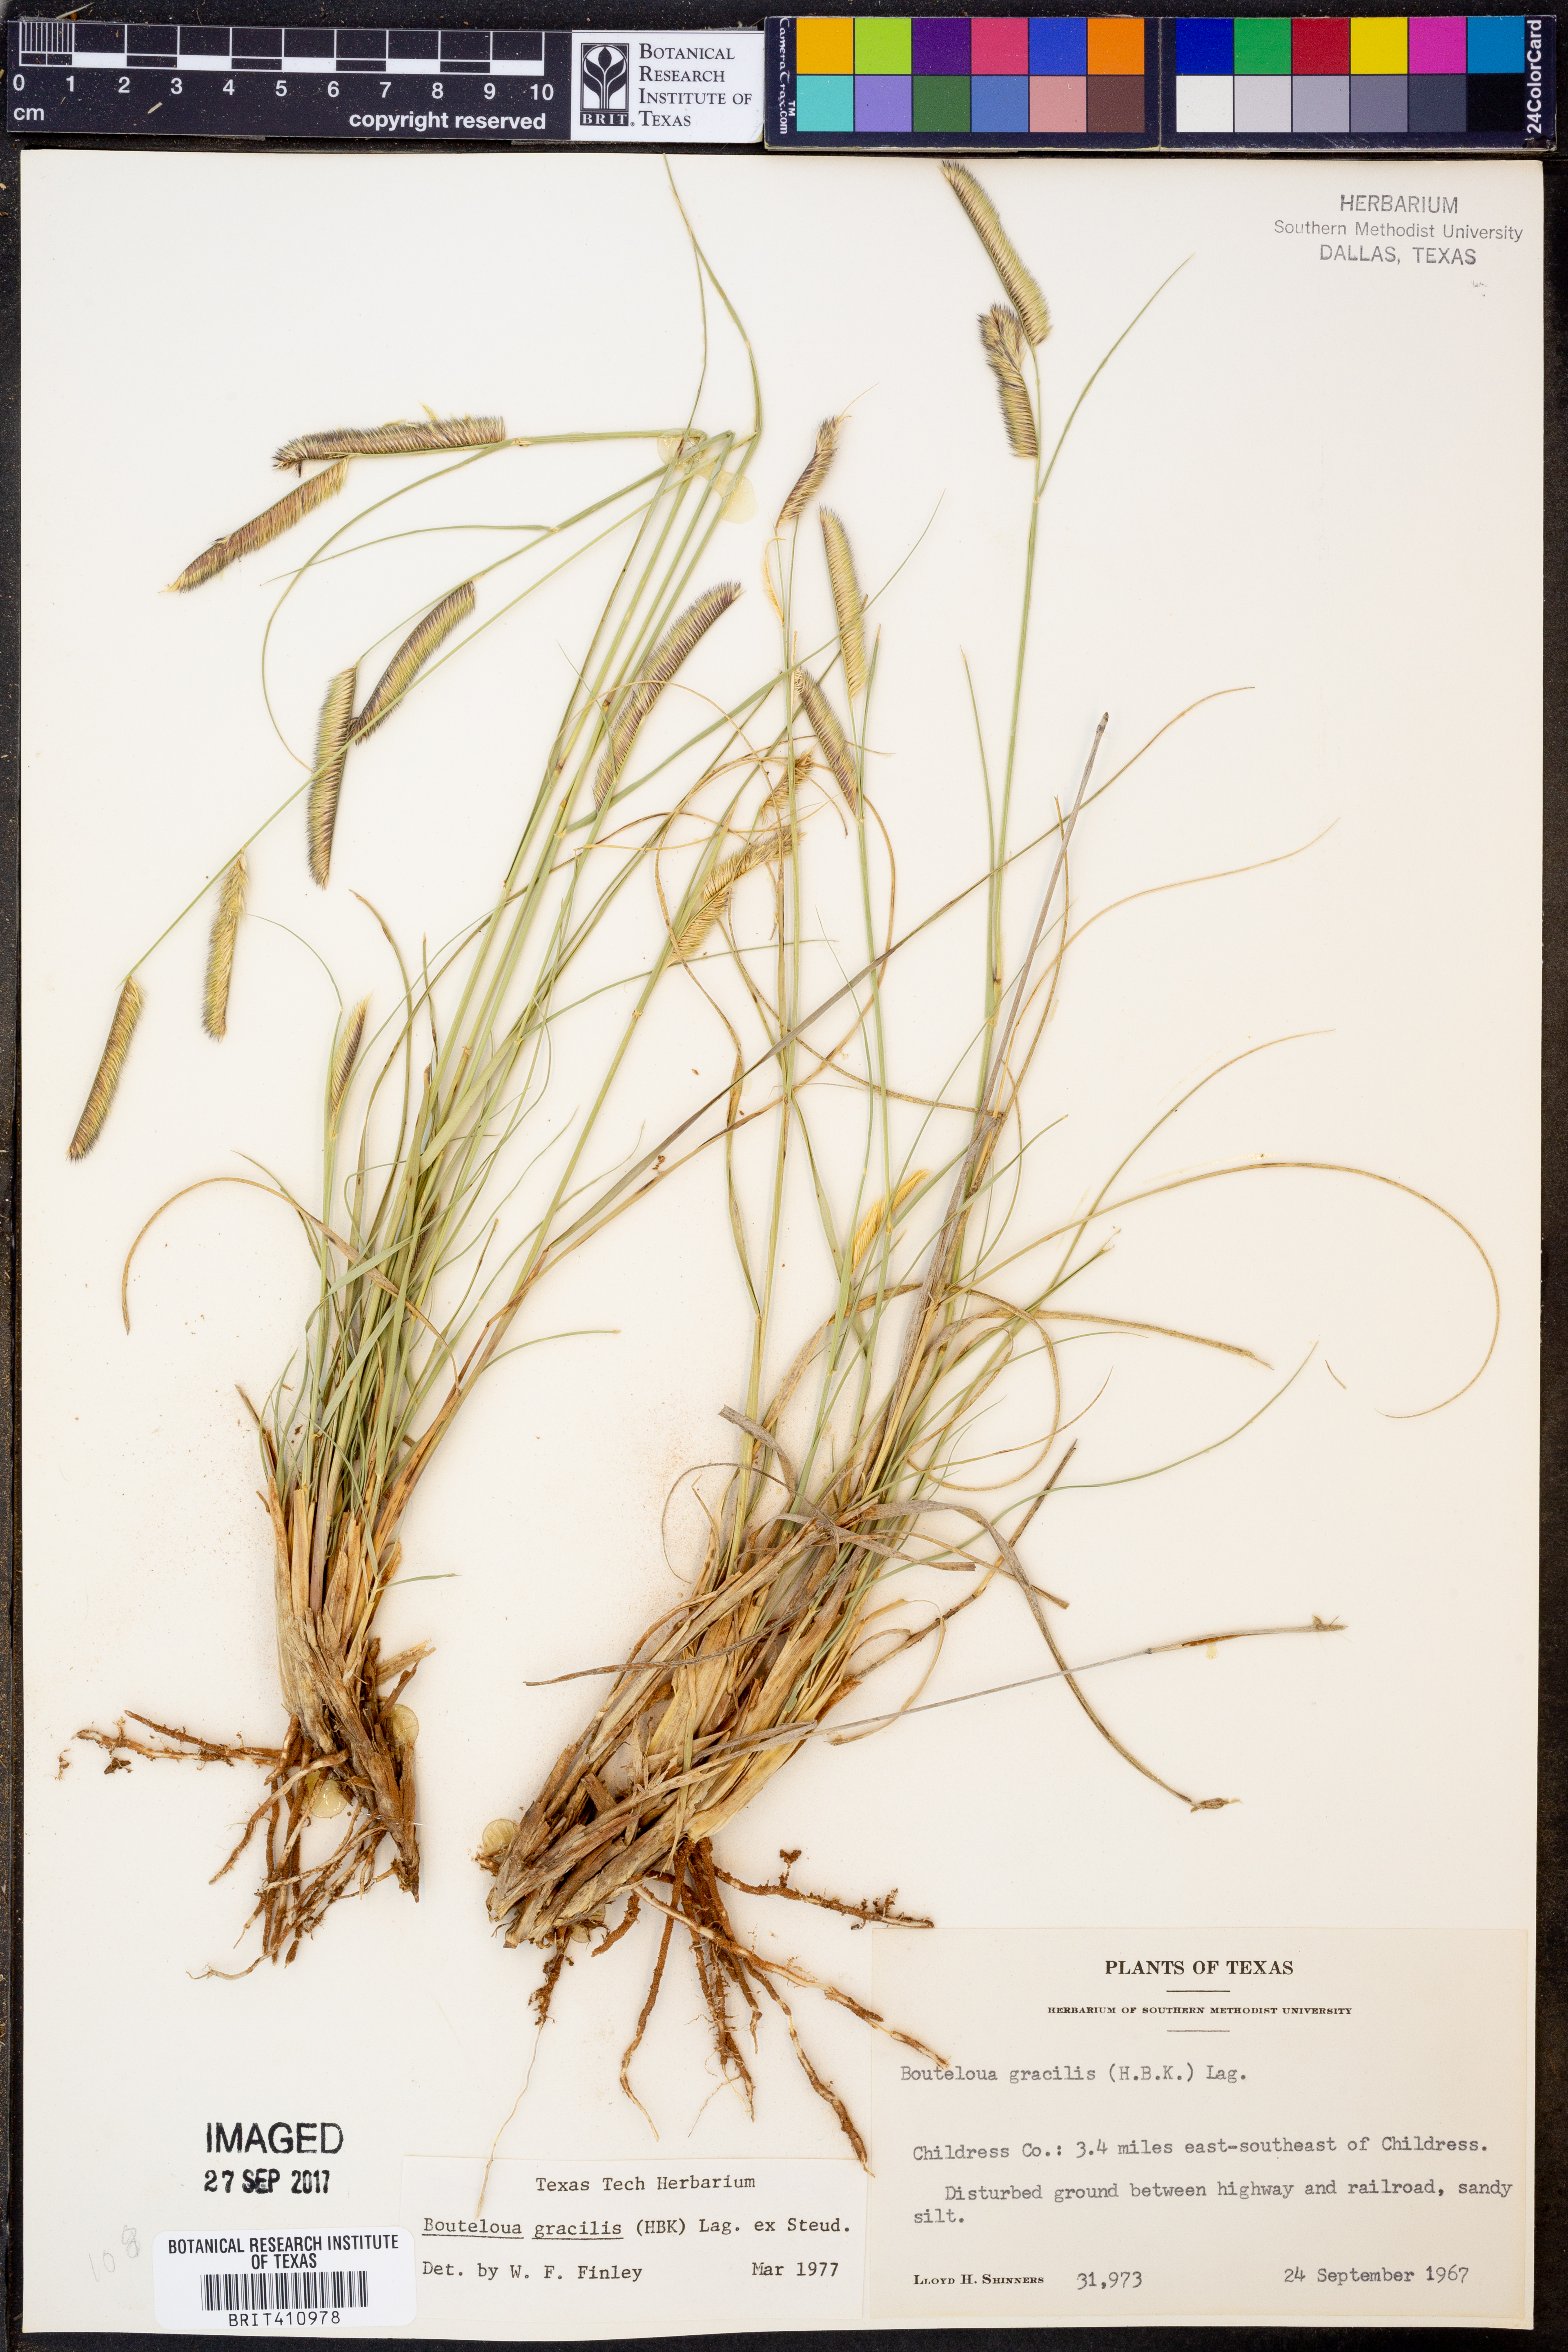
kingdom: Plantae
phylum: Tracheophyta
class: Liliopsida
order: Poales
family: Poaceae
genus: Bouteloua
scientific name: Bouteloua gracilis
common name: Blue grama
